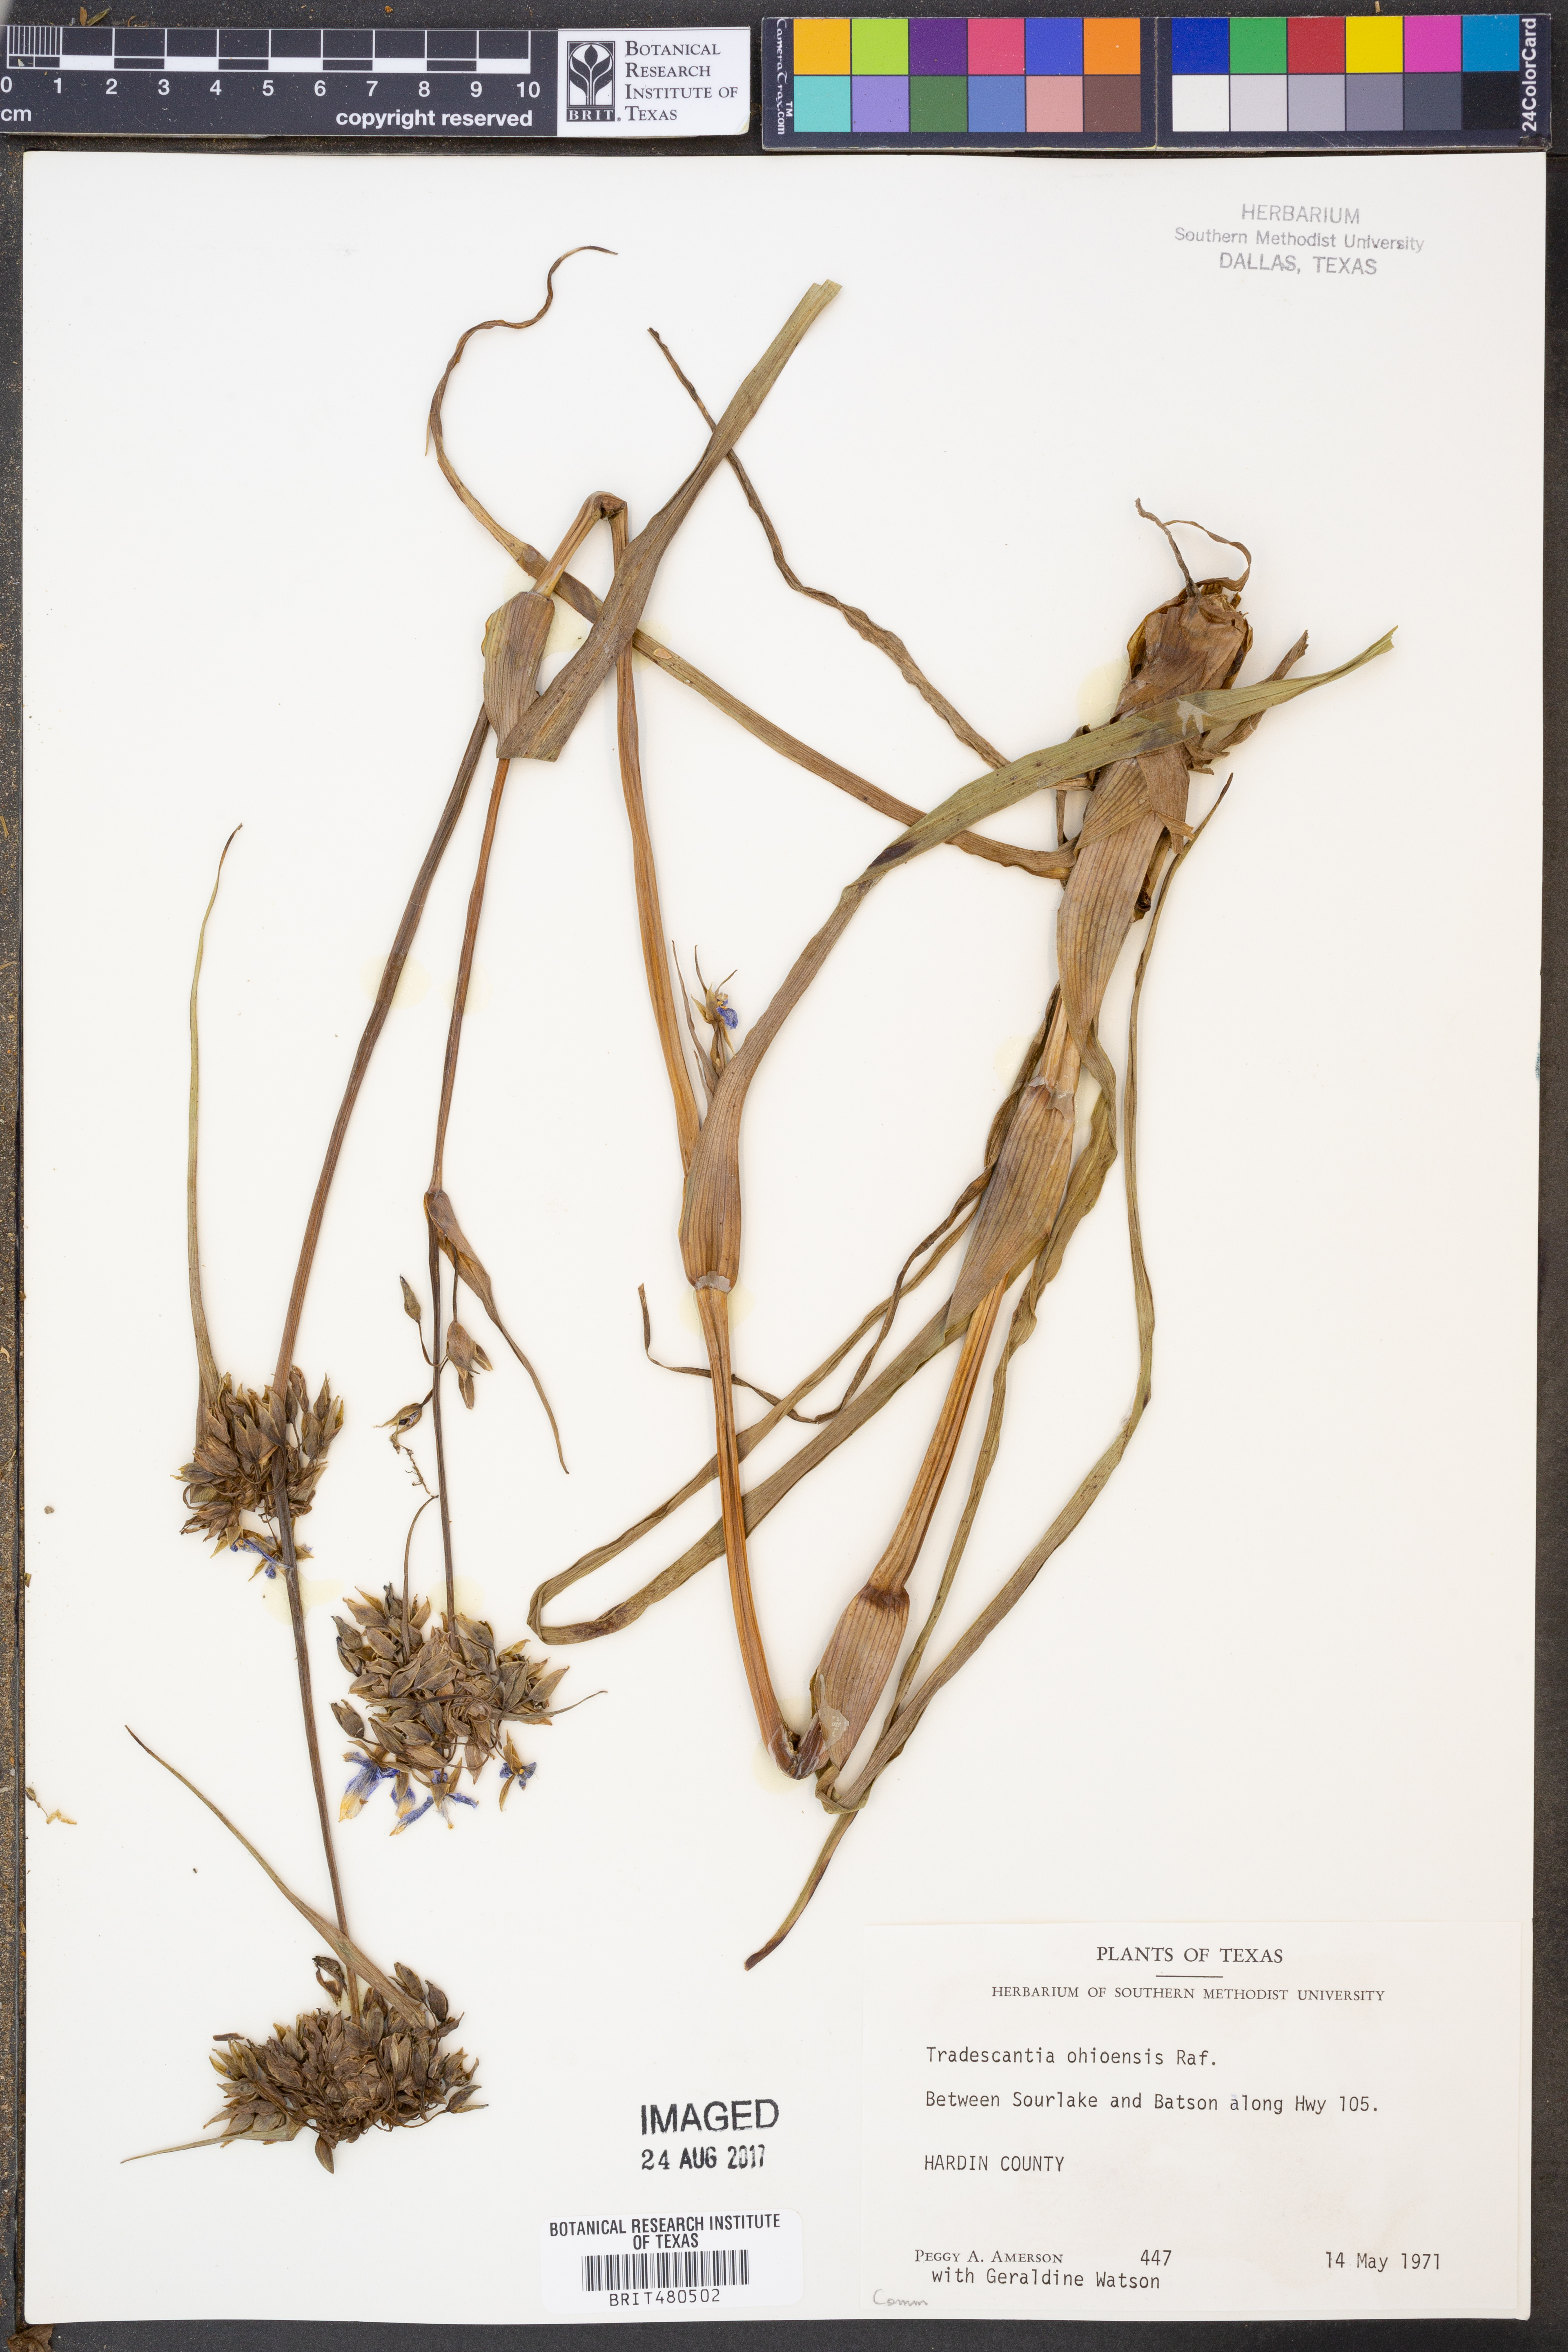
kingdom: Plantae
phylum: Tracheophyta
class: Liliopsida
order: Commelinales
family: Commelinaceae
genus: Tradescantia
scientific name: Tradescantia ohiensis
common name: Ohio spiderwort
